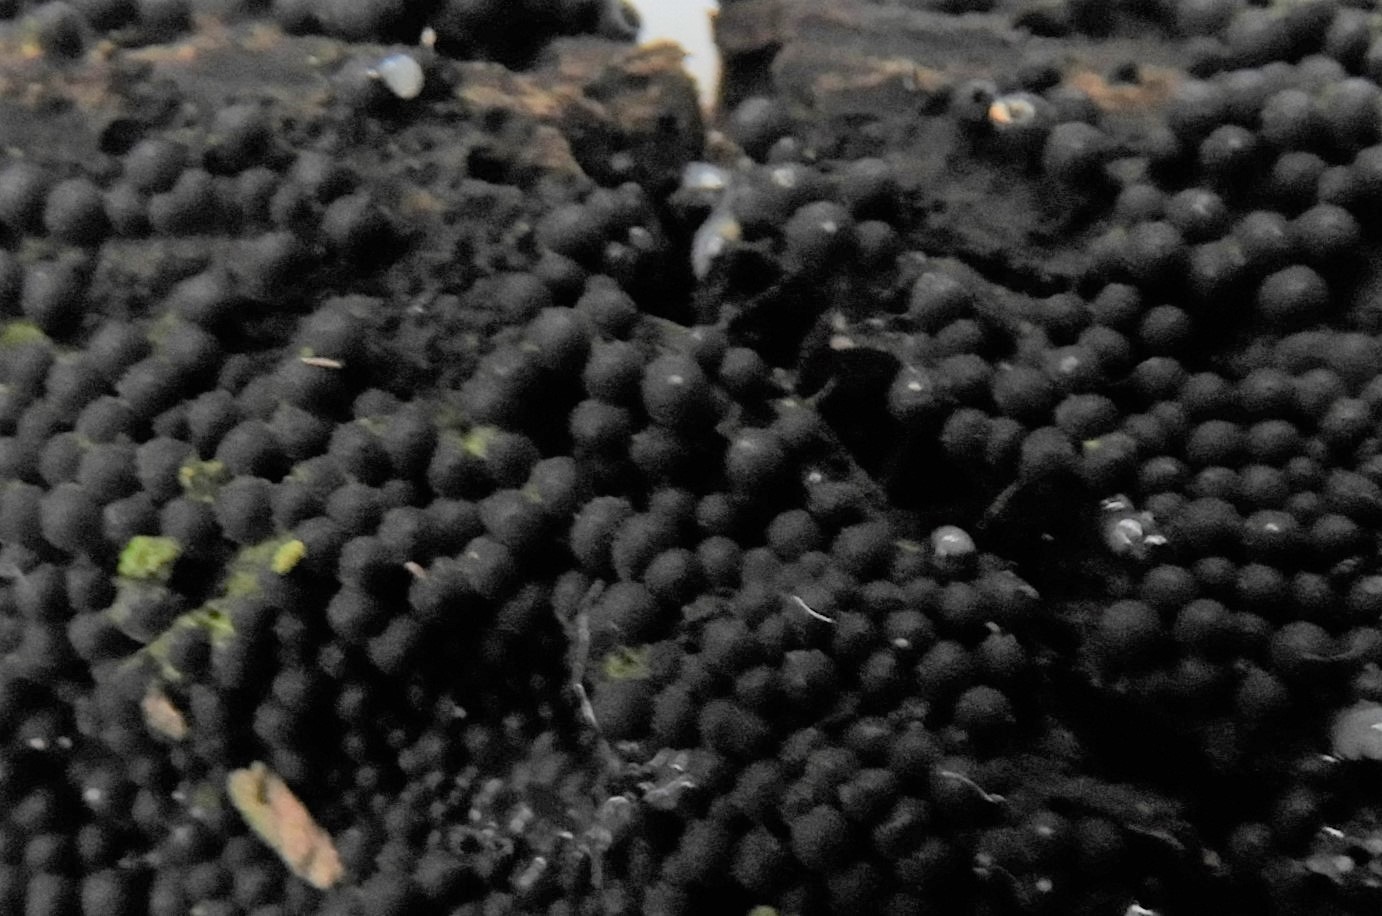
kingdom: Fungi
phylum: Ascomycota
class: Sordariomycetes
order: Sordariales
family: Helminthosphaeriaceae
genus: Ruzenia
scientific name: Ruzenia spermoides
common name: glat børstekerne
